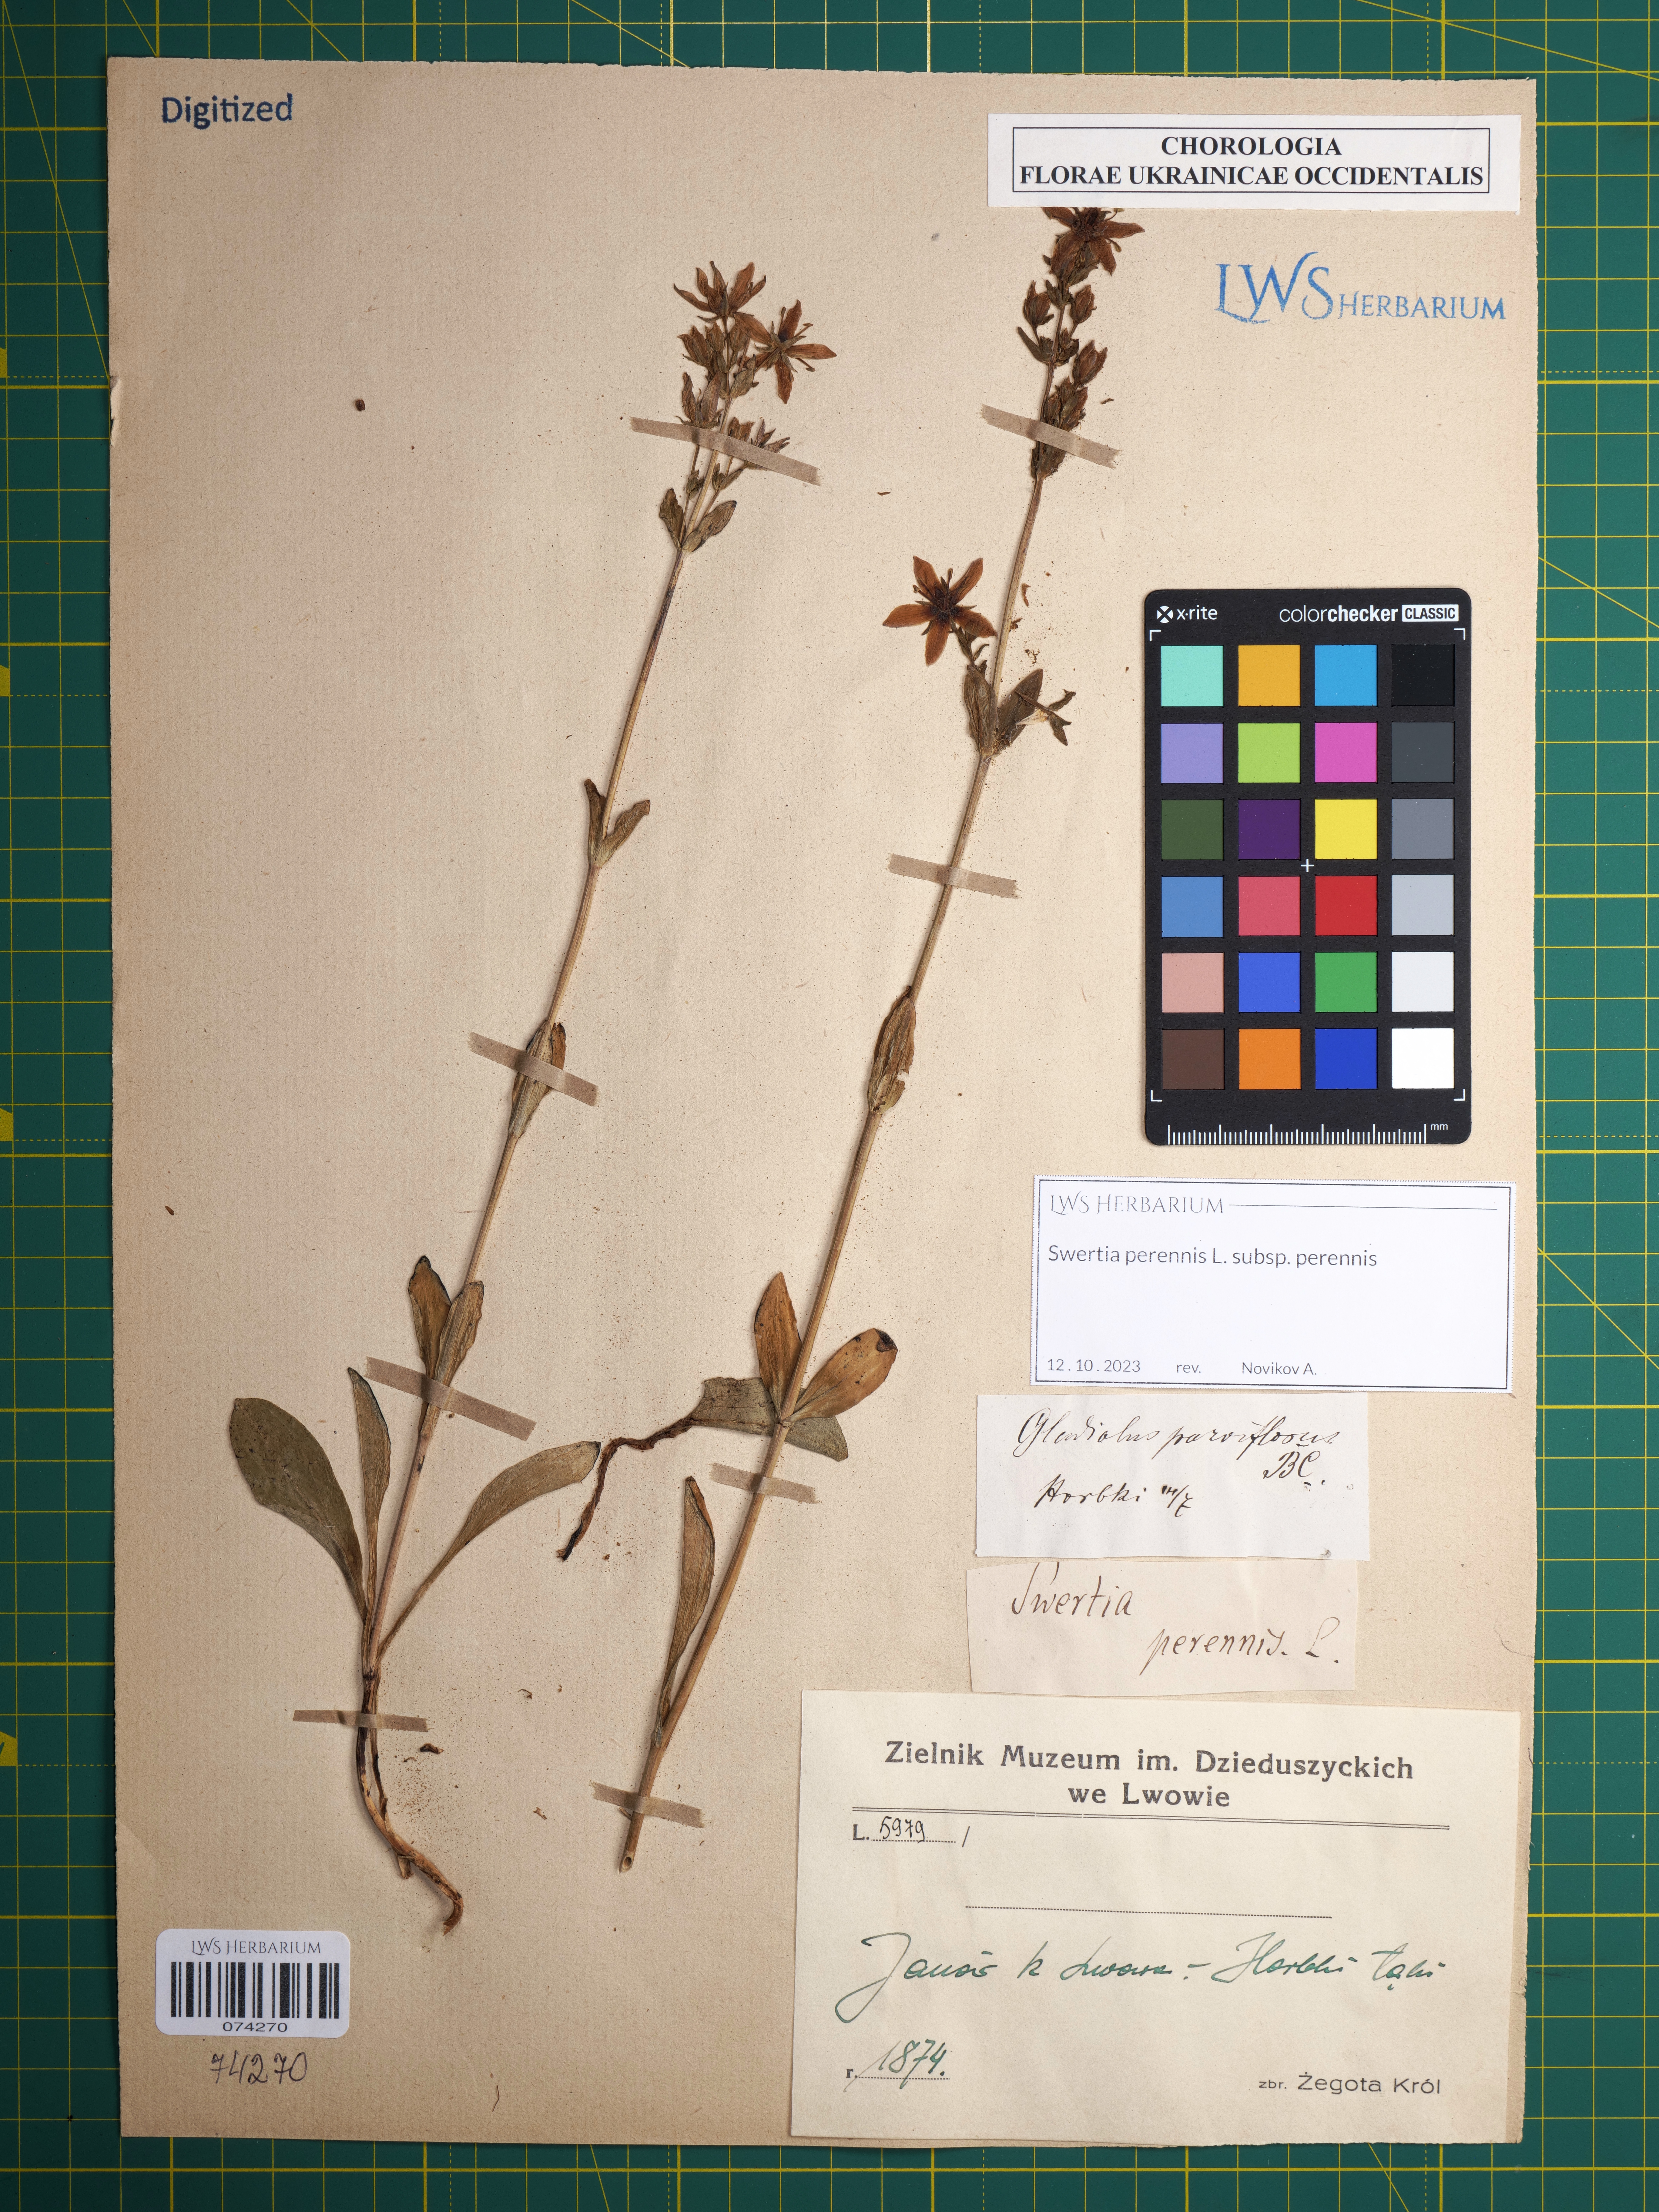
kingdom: Plantae
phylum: Tracheophyta
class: Magnoliopsida
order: Gentianales
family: Gentianaceae
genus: Swertia
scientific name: Swertia perennis
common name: Alpine bog swertia
